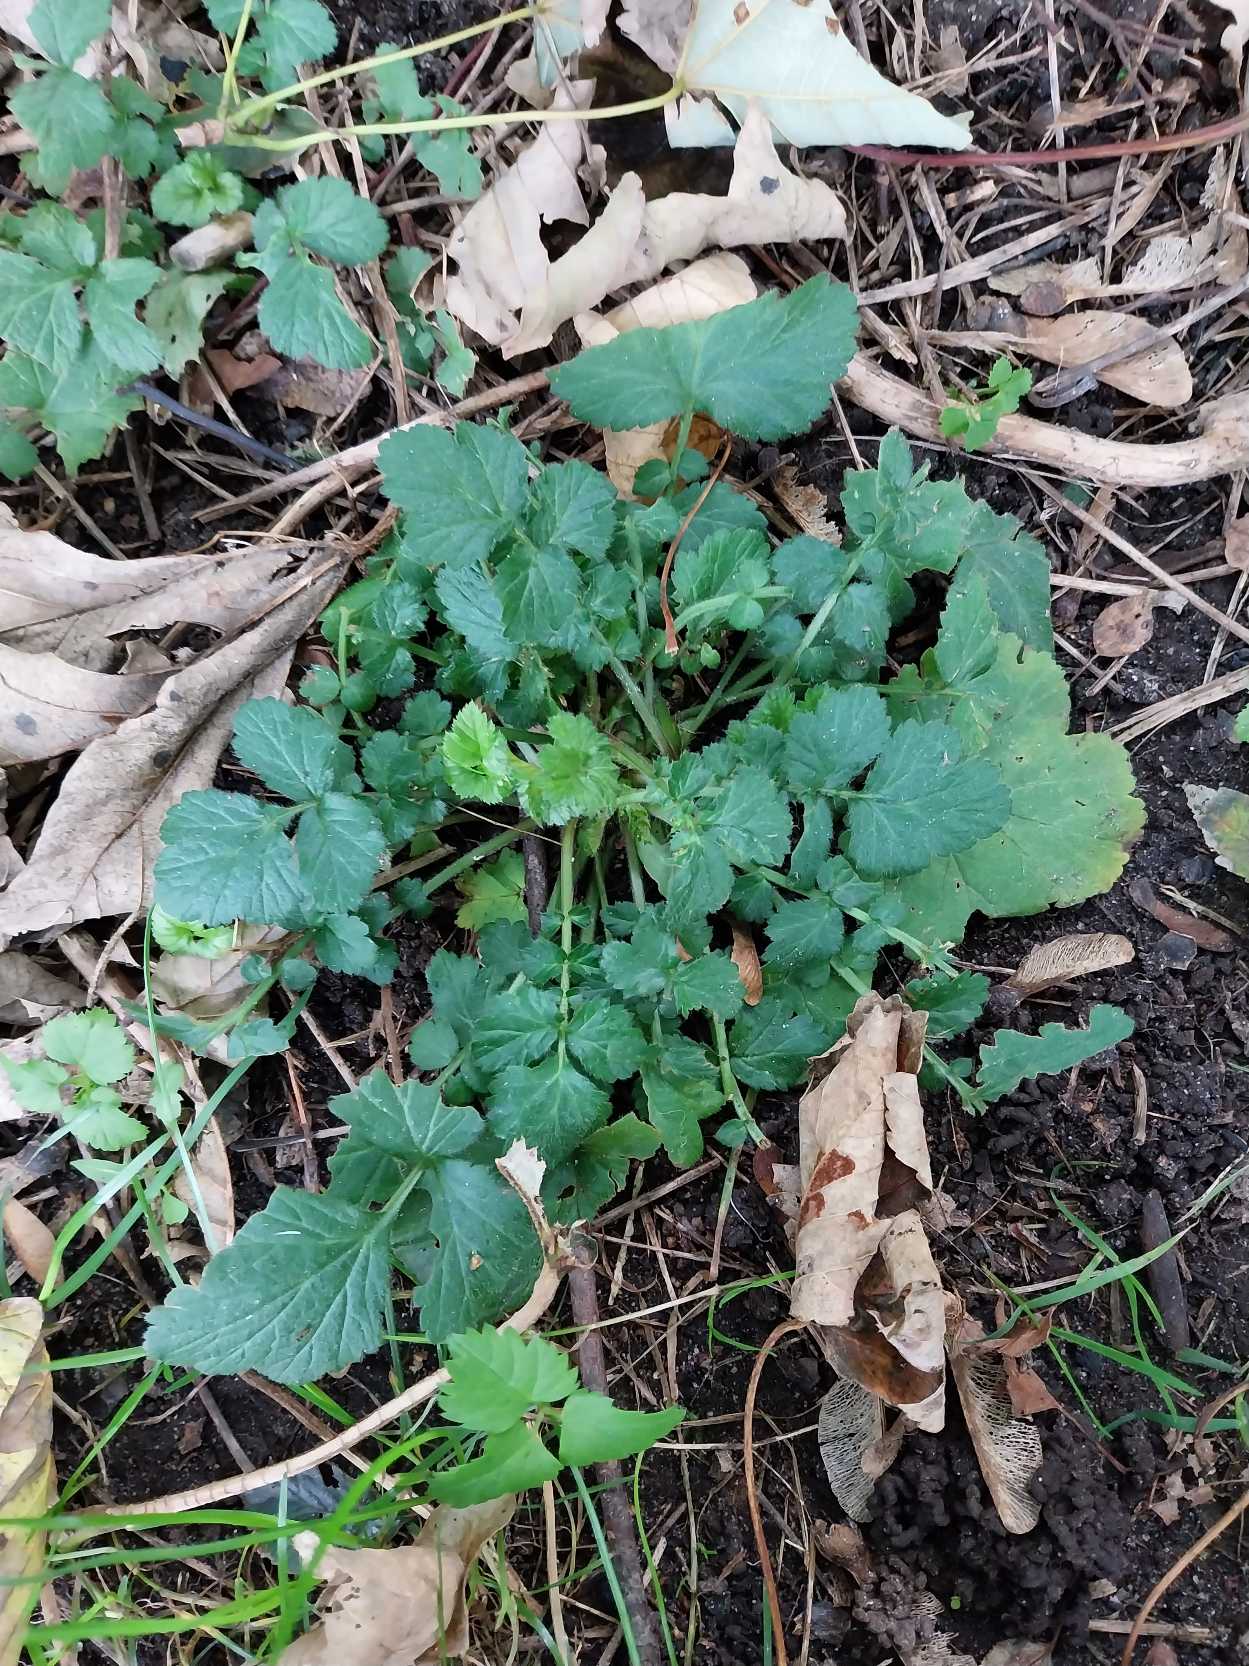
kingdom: Plantae
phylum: Tracheophyta
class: Magnoliopsida
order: Rosales
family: Rosaceae
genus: Geum
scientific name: Geum urbanum
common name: Feber-nellikerod
